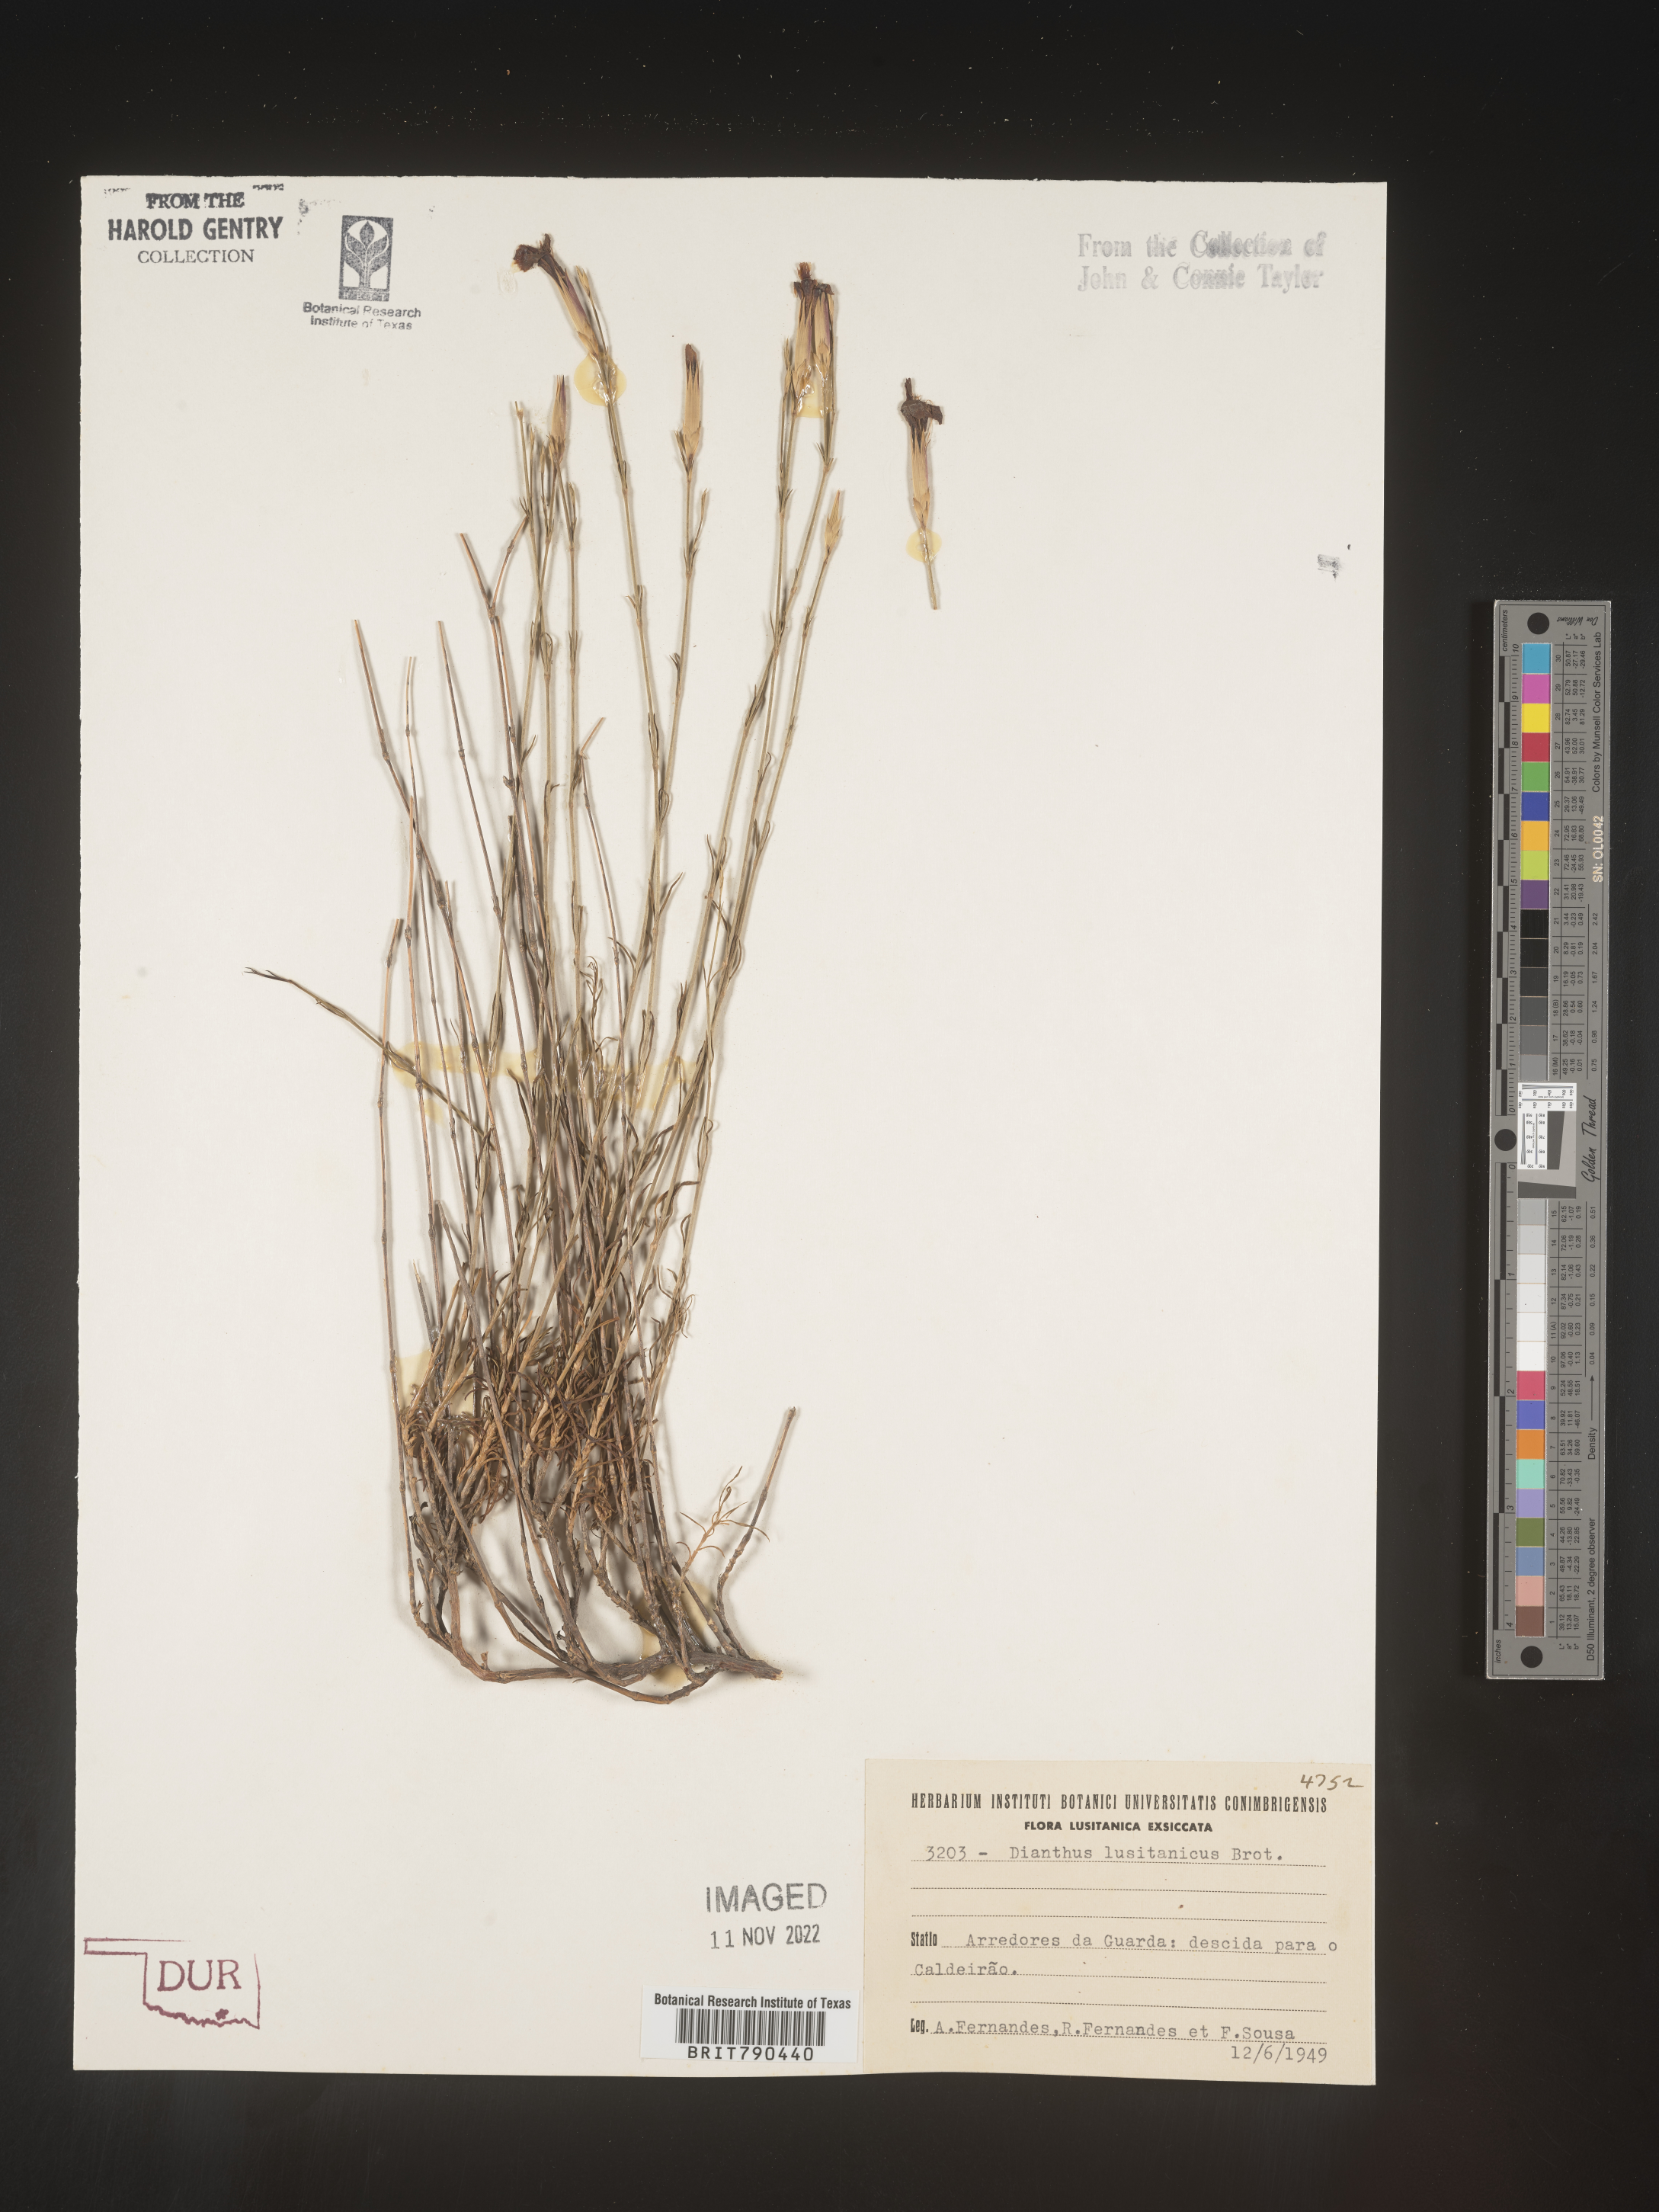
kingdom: Plantae
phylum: Tracheophyta
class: Magnoliopsida
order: Caryophyllales
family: Caryophyllaceae
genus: Dianthus
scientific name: Dianthus
